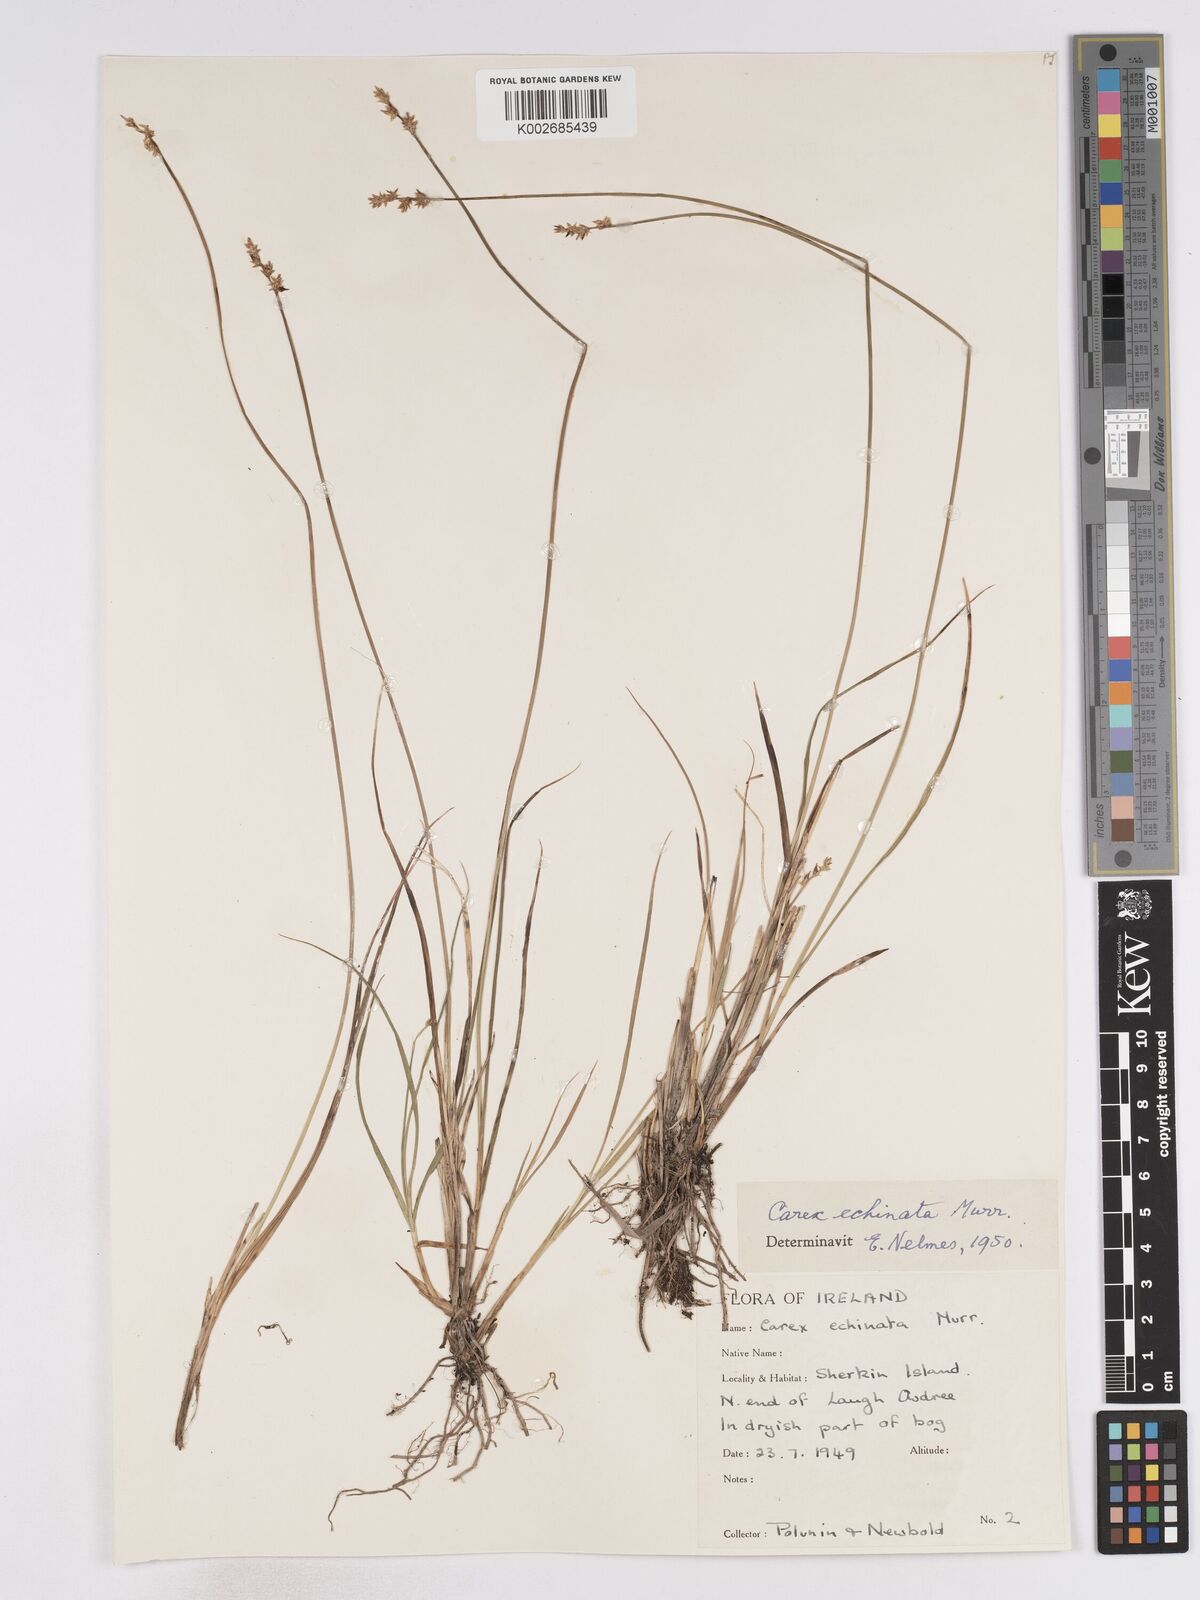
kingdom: Plantae
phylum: Tracheophyta
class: Liliopsida
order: Poales
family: Cyperaceae
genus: Carex
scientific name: Carex echinata
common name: Star sedge
